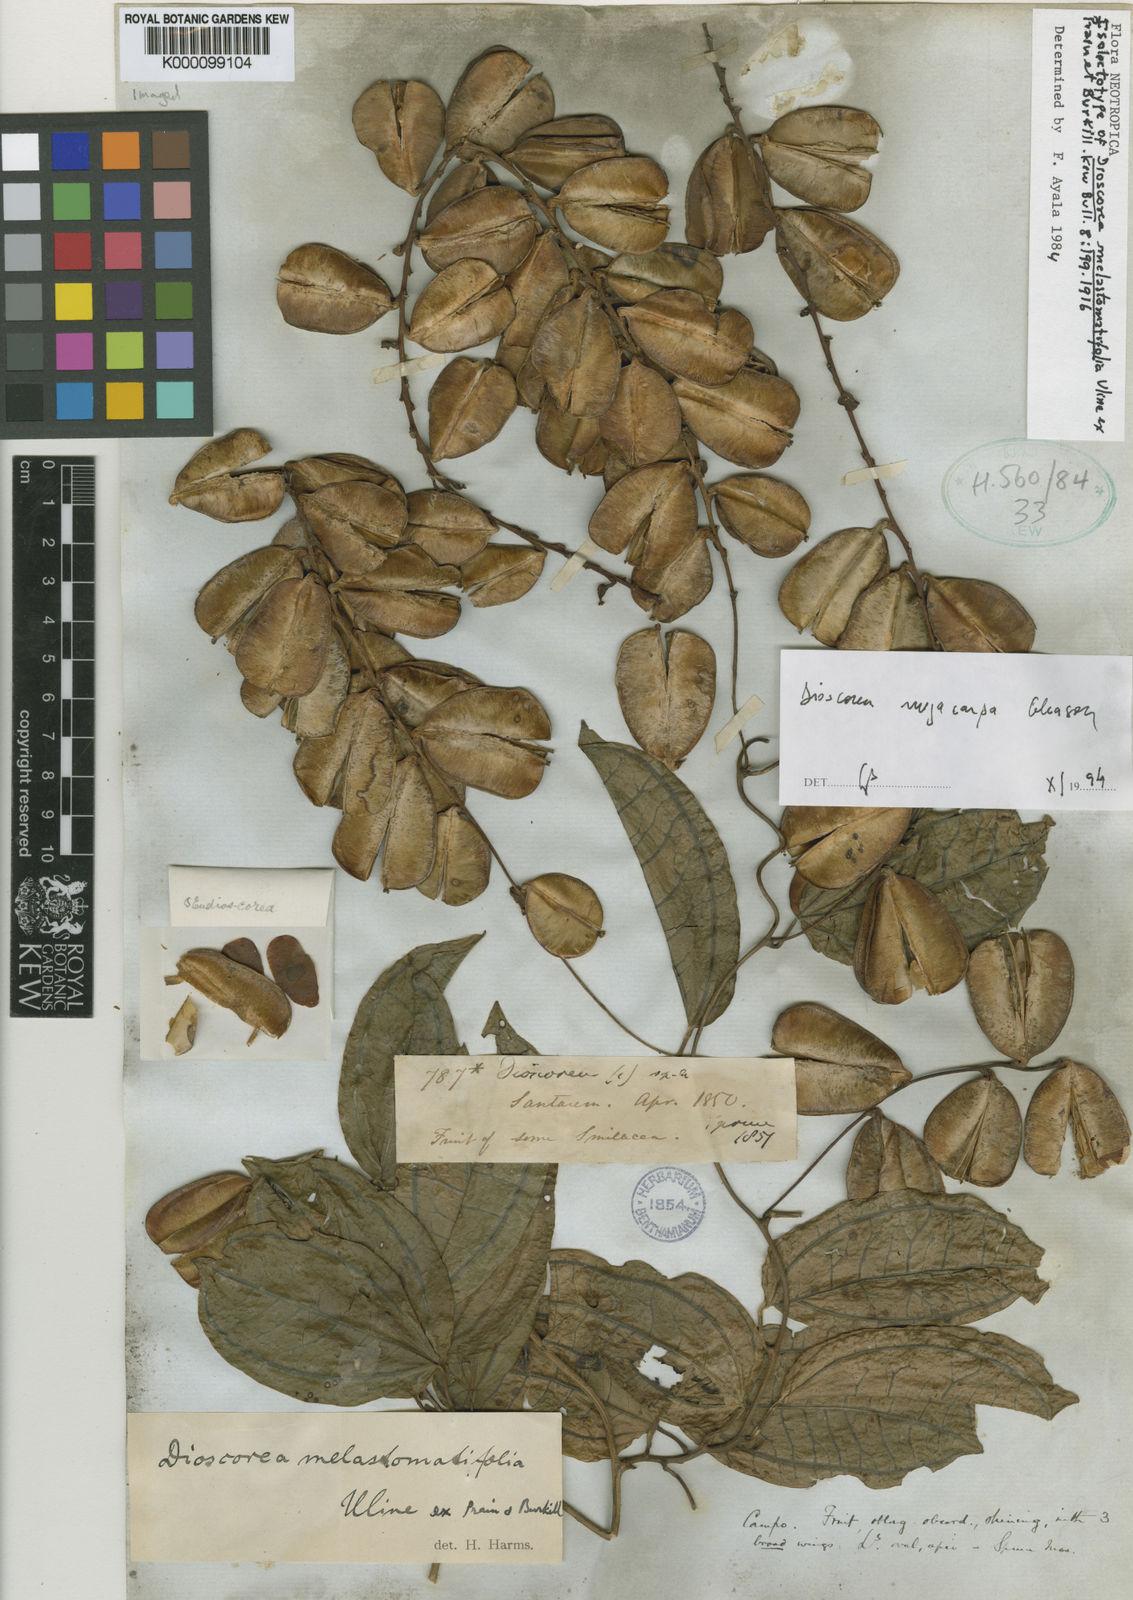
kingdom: Plantae
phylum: Tracheophyta
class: Liliopsida
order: Dioscoreales
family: Dioscoreaceae
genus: Dioscorea
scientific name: Dioscorea melastomatifolia
